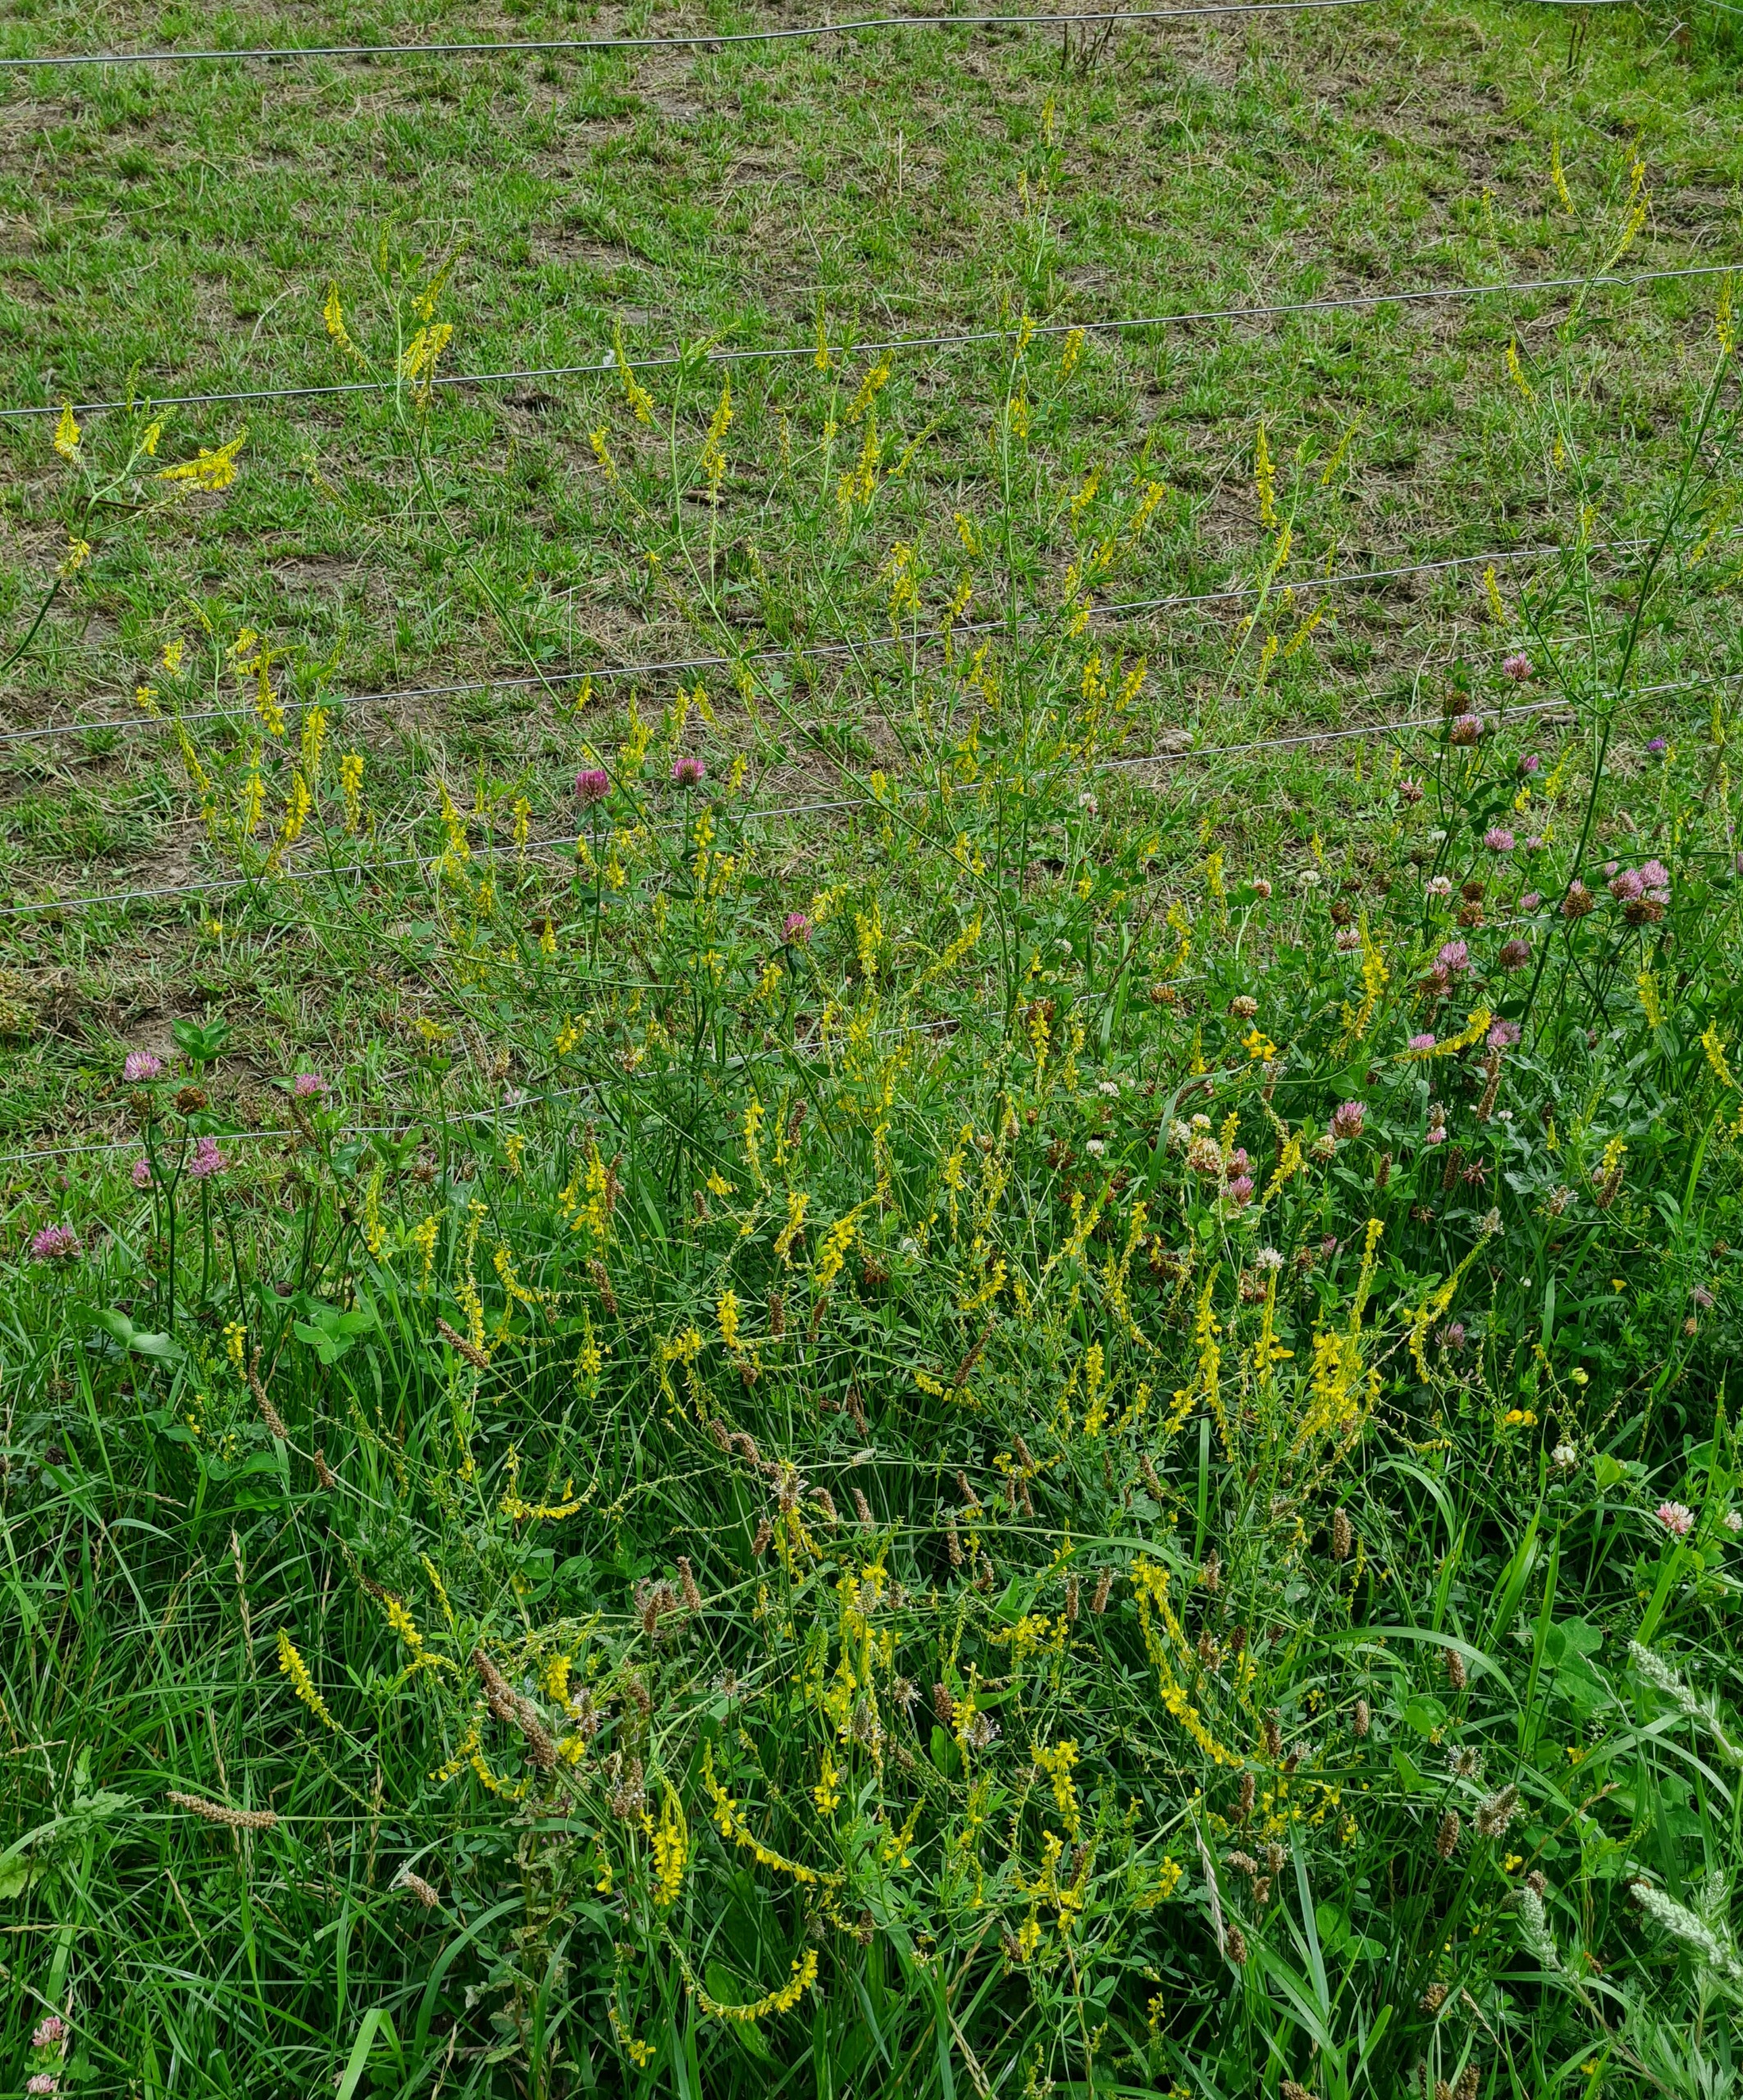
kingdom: Plantae
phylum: Tracheophyta
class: Magnoliopsida
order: Fabales
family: Fabaceae
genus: Melilotus
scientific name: Melilotus
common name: Stenkløverslægten
